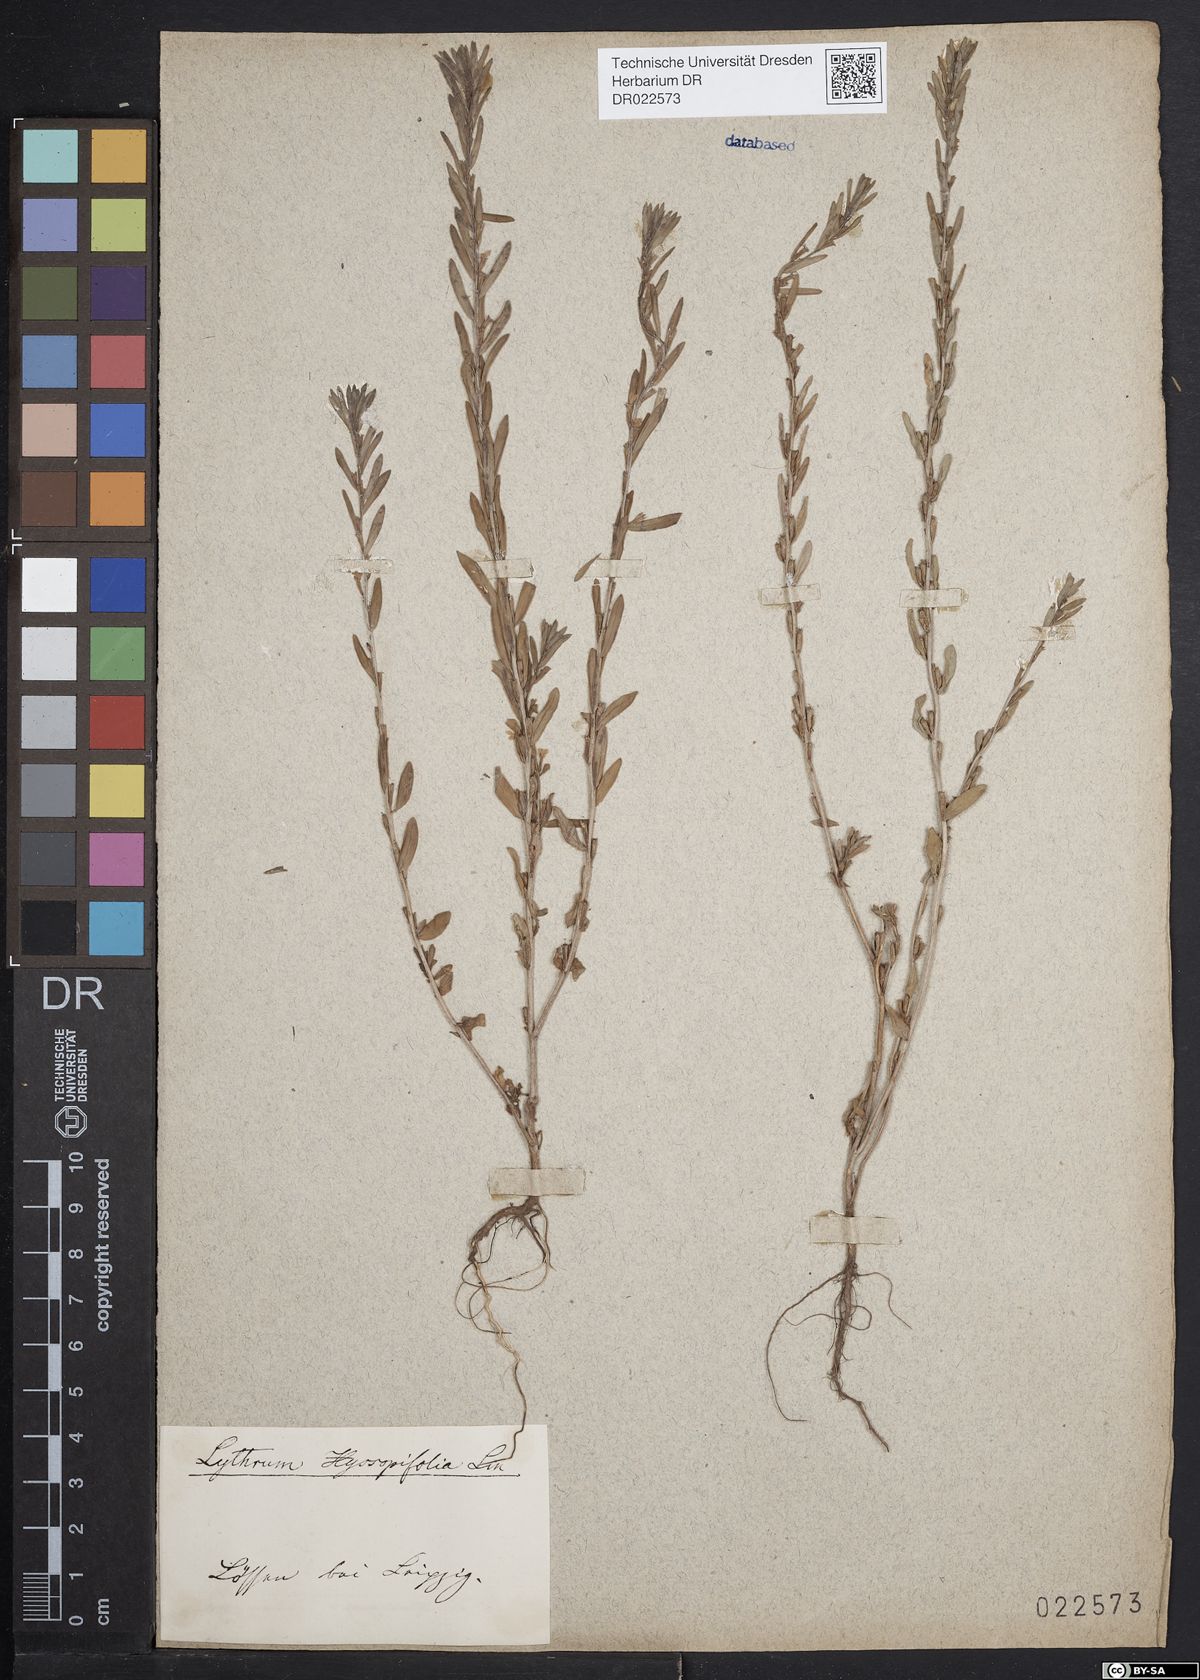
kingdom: Plantae
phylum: Tracheophyta
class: Magnoliopsida
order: Myrtales
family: Lythraceae
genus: Lythrum
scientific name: Lythrum hyssopifolia
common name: Grass-poly
